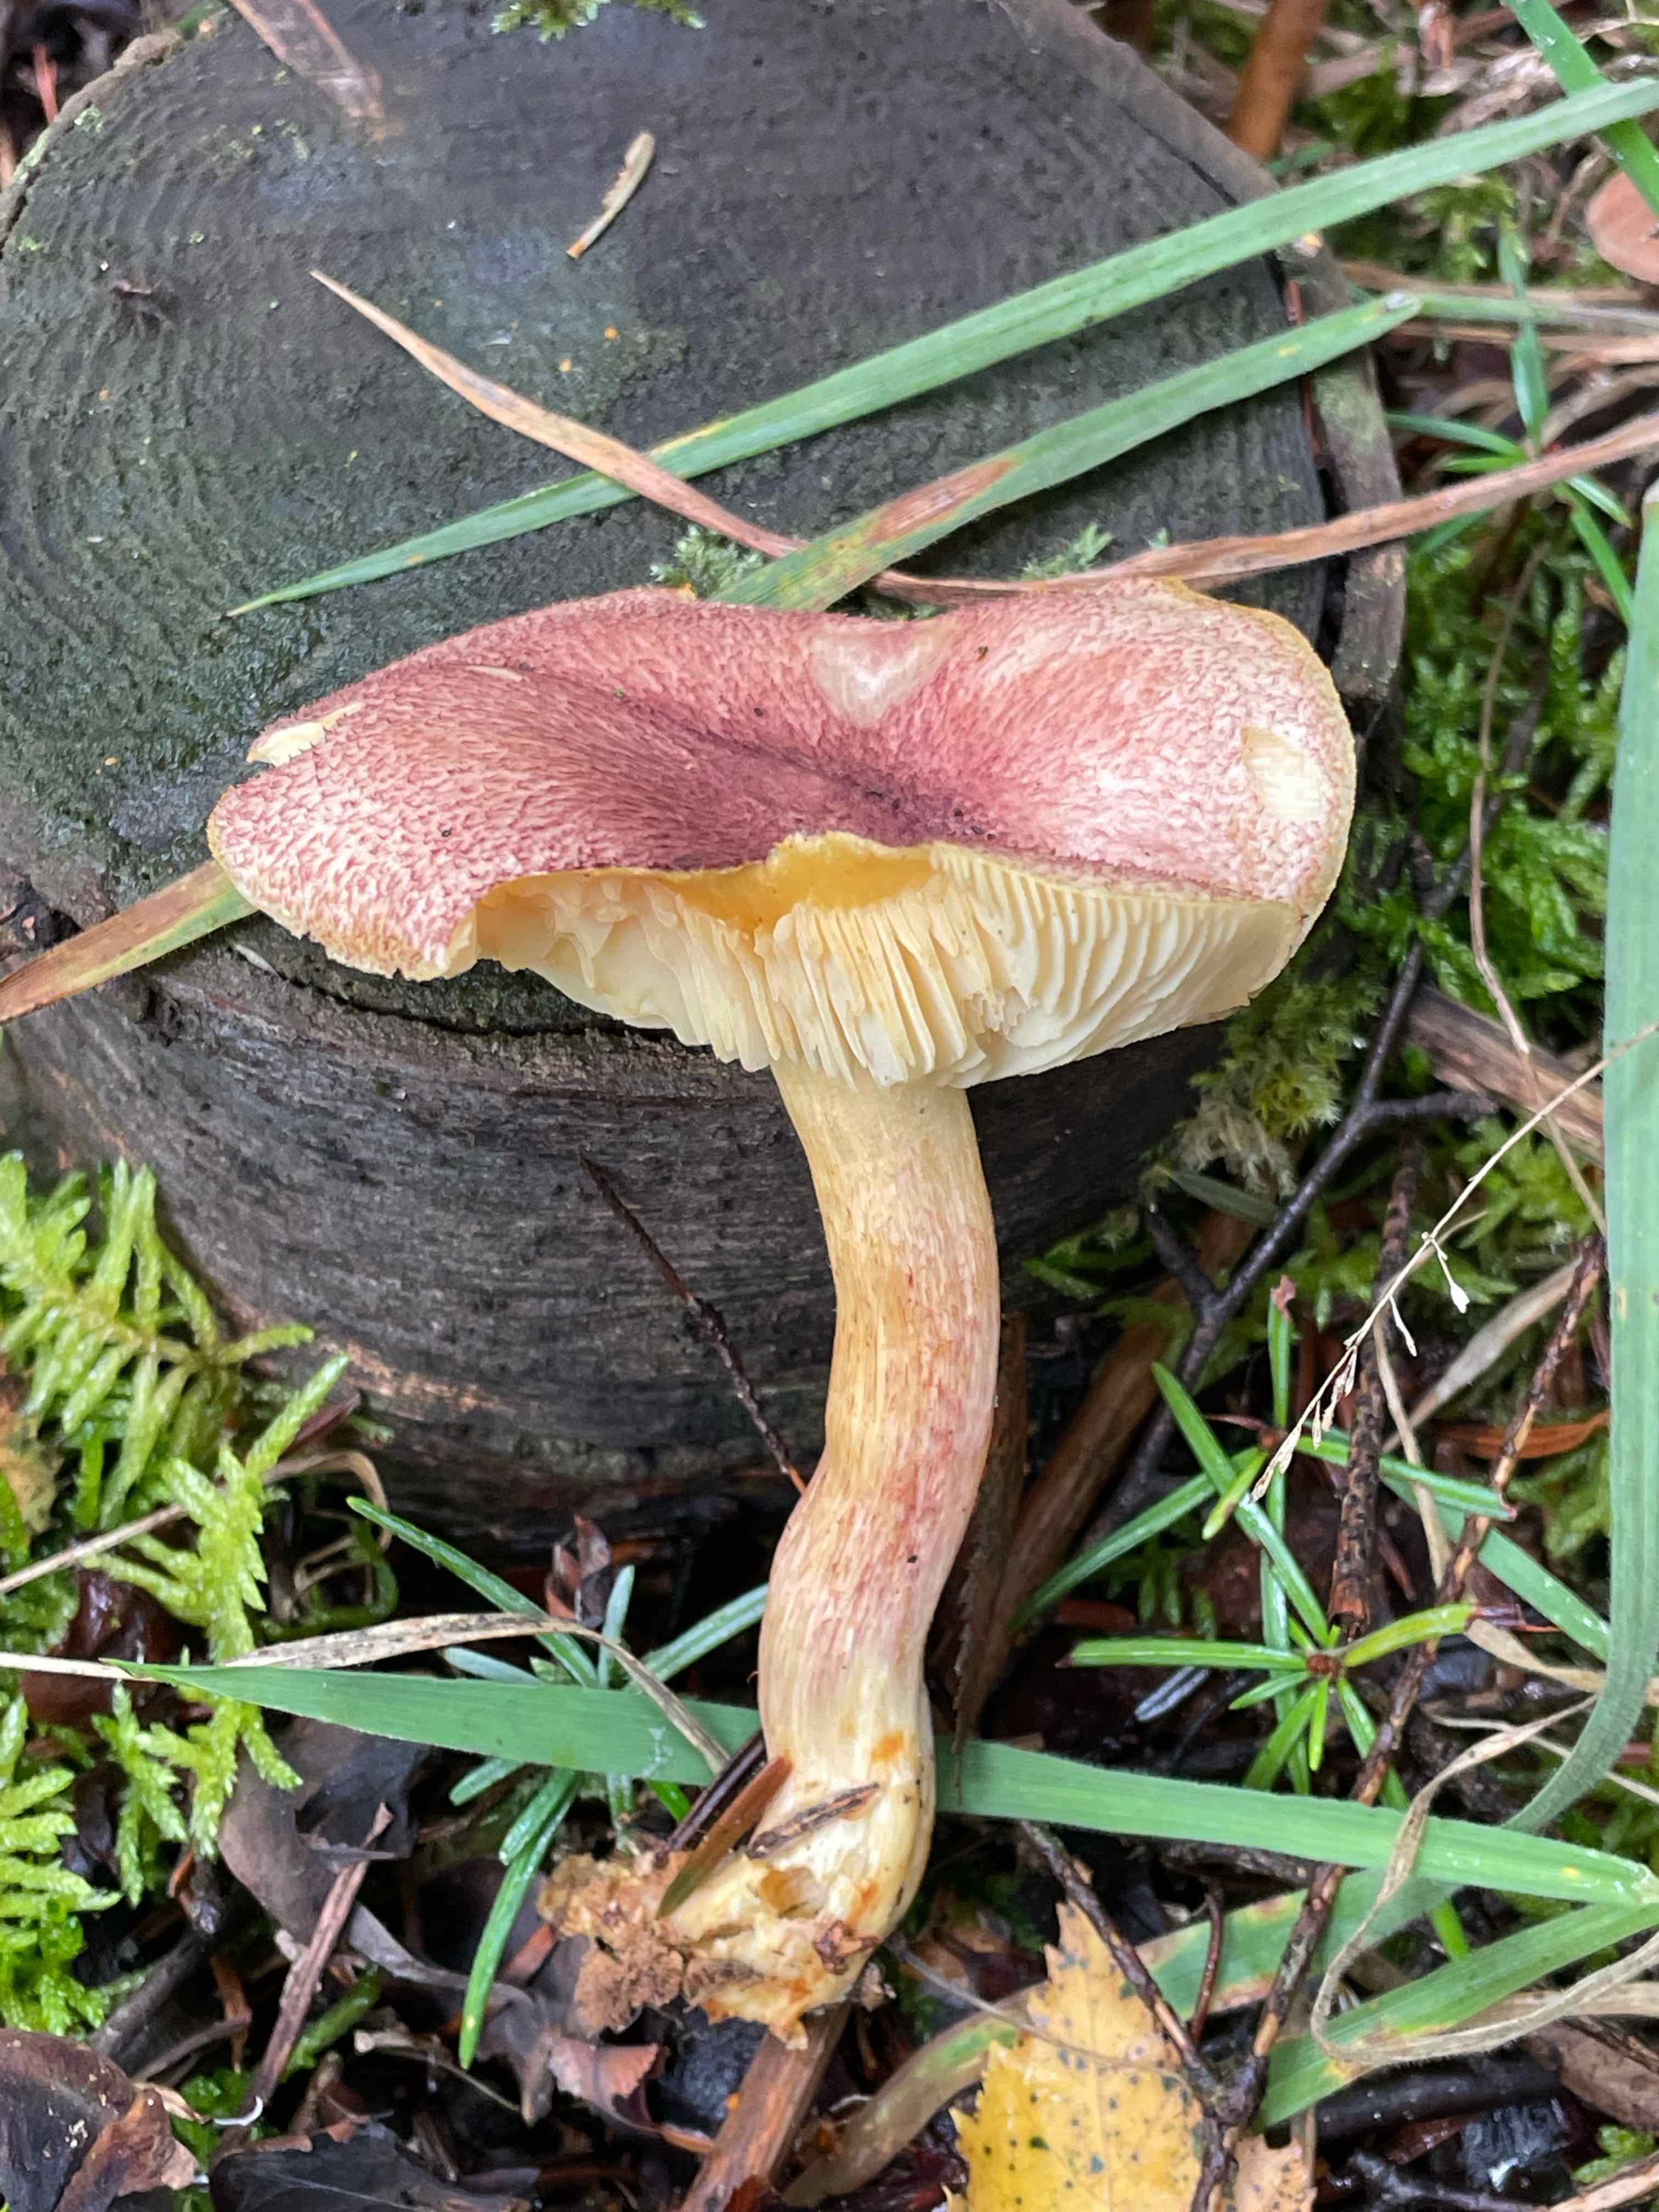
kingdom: Fungi
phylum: Basidiomycota
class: Agaricomycetes
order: Agaricales
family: Tricholomataceae
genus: Tricholomopsis
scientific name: Tricholomopsis rutilans
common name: purpur-væbnerhat
